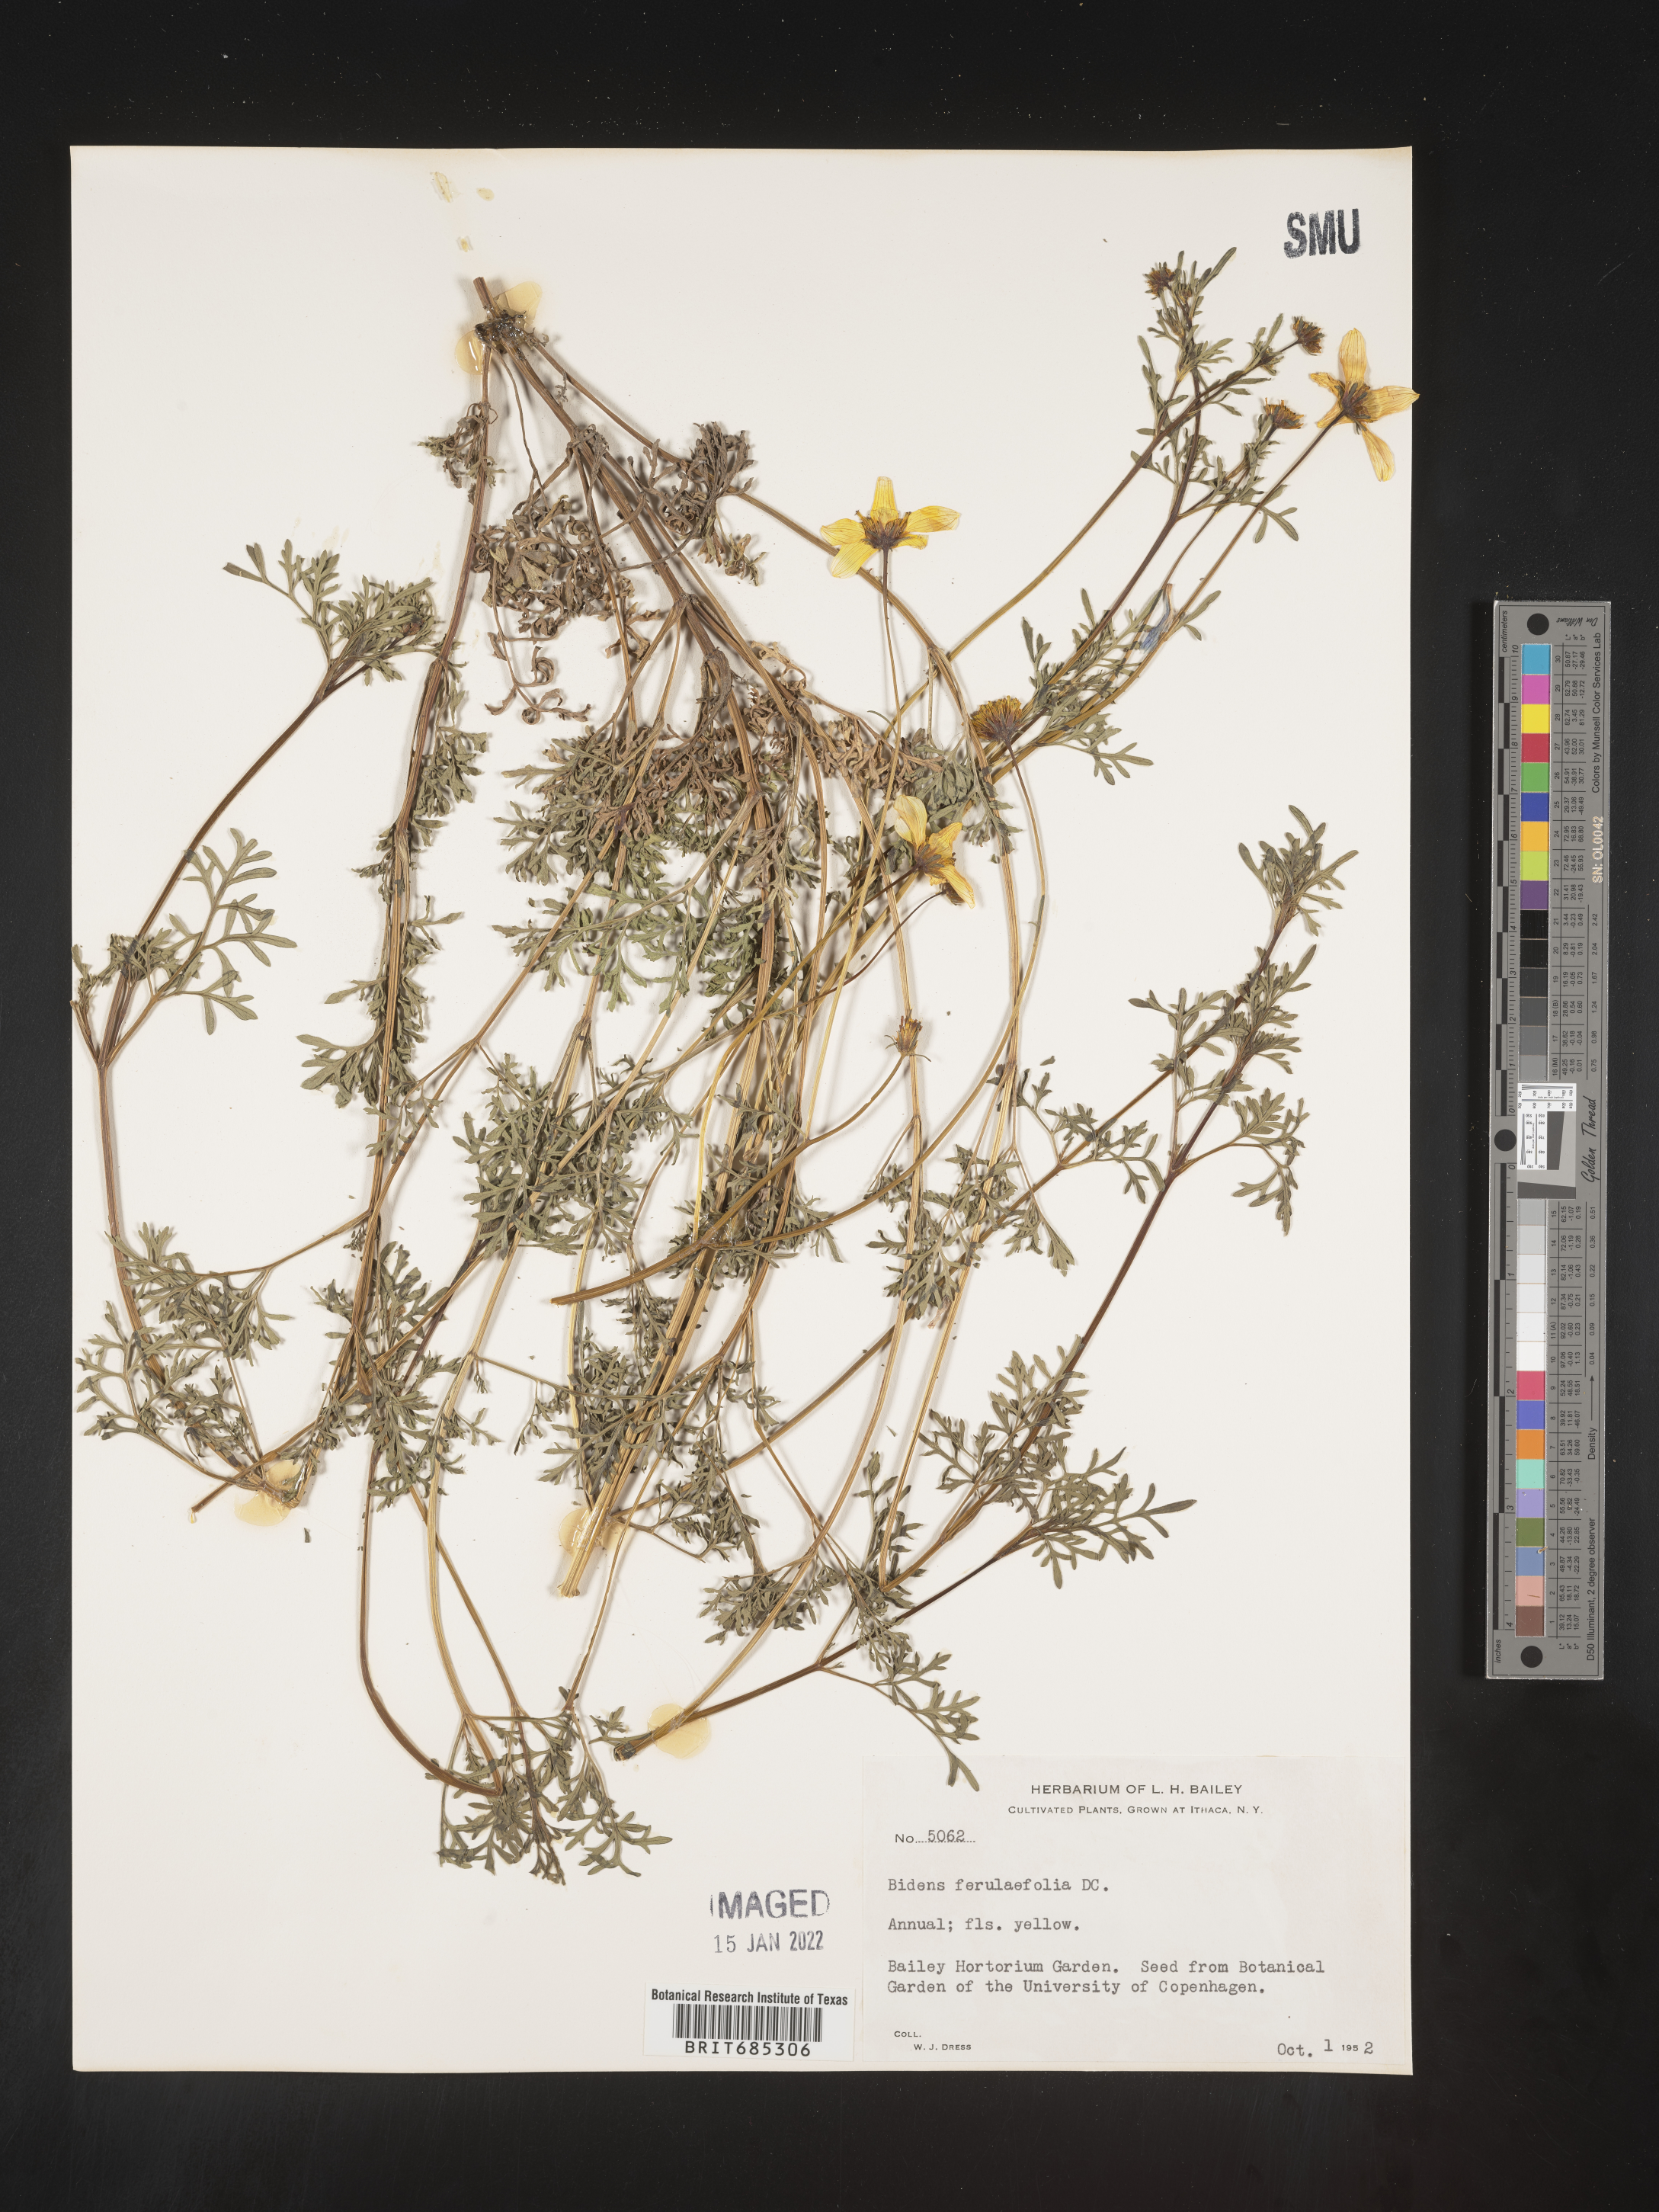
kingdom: Plantae
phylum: Tracheophyta
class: Magnoliopsida
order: Asterales
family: Asteraceae
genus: Bidens
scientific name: Bidens
